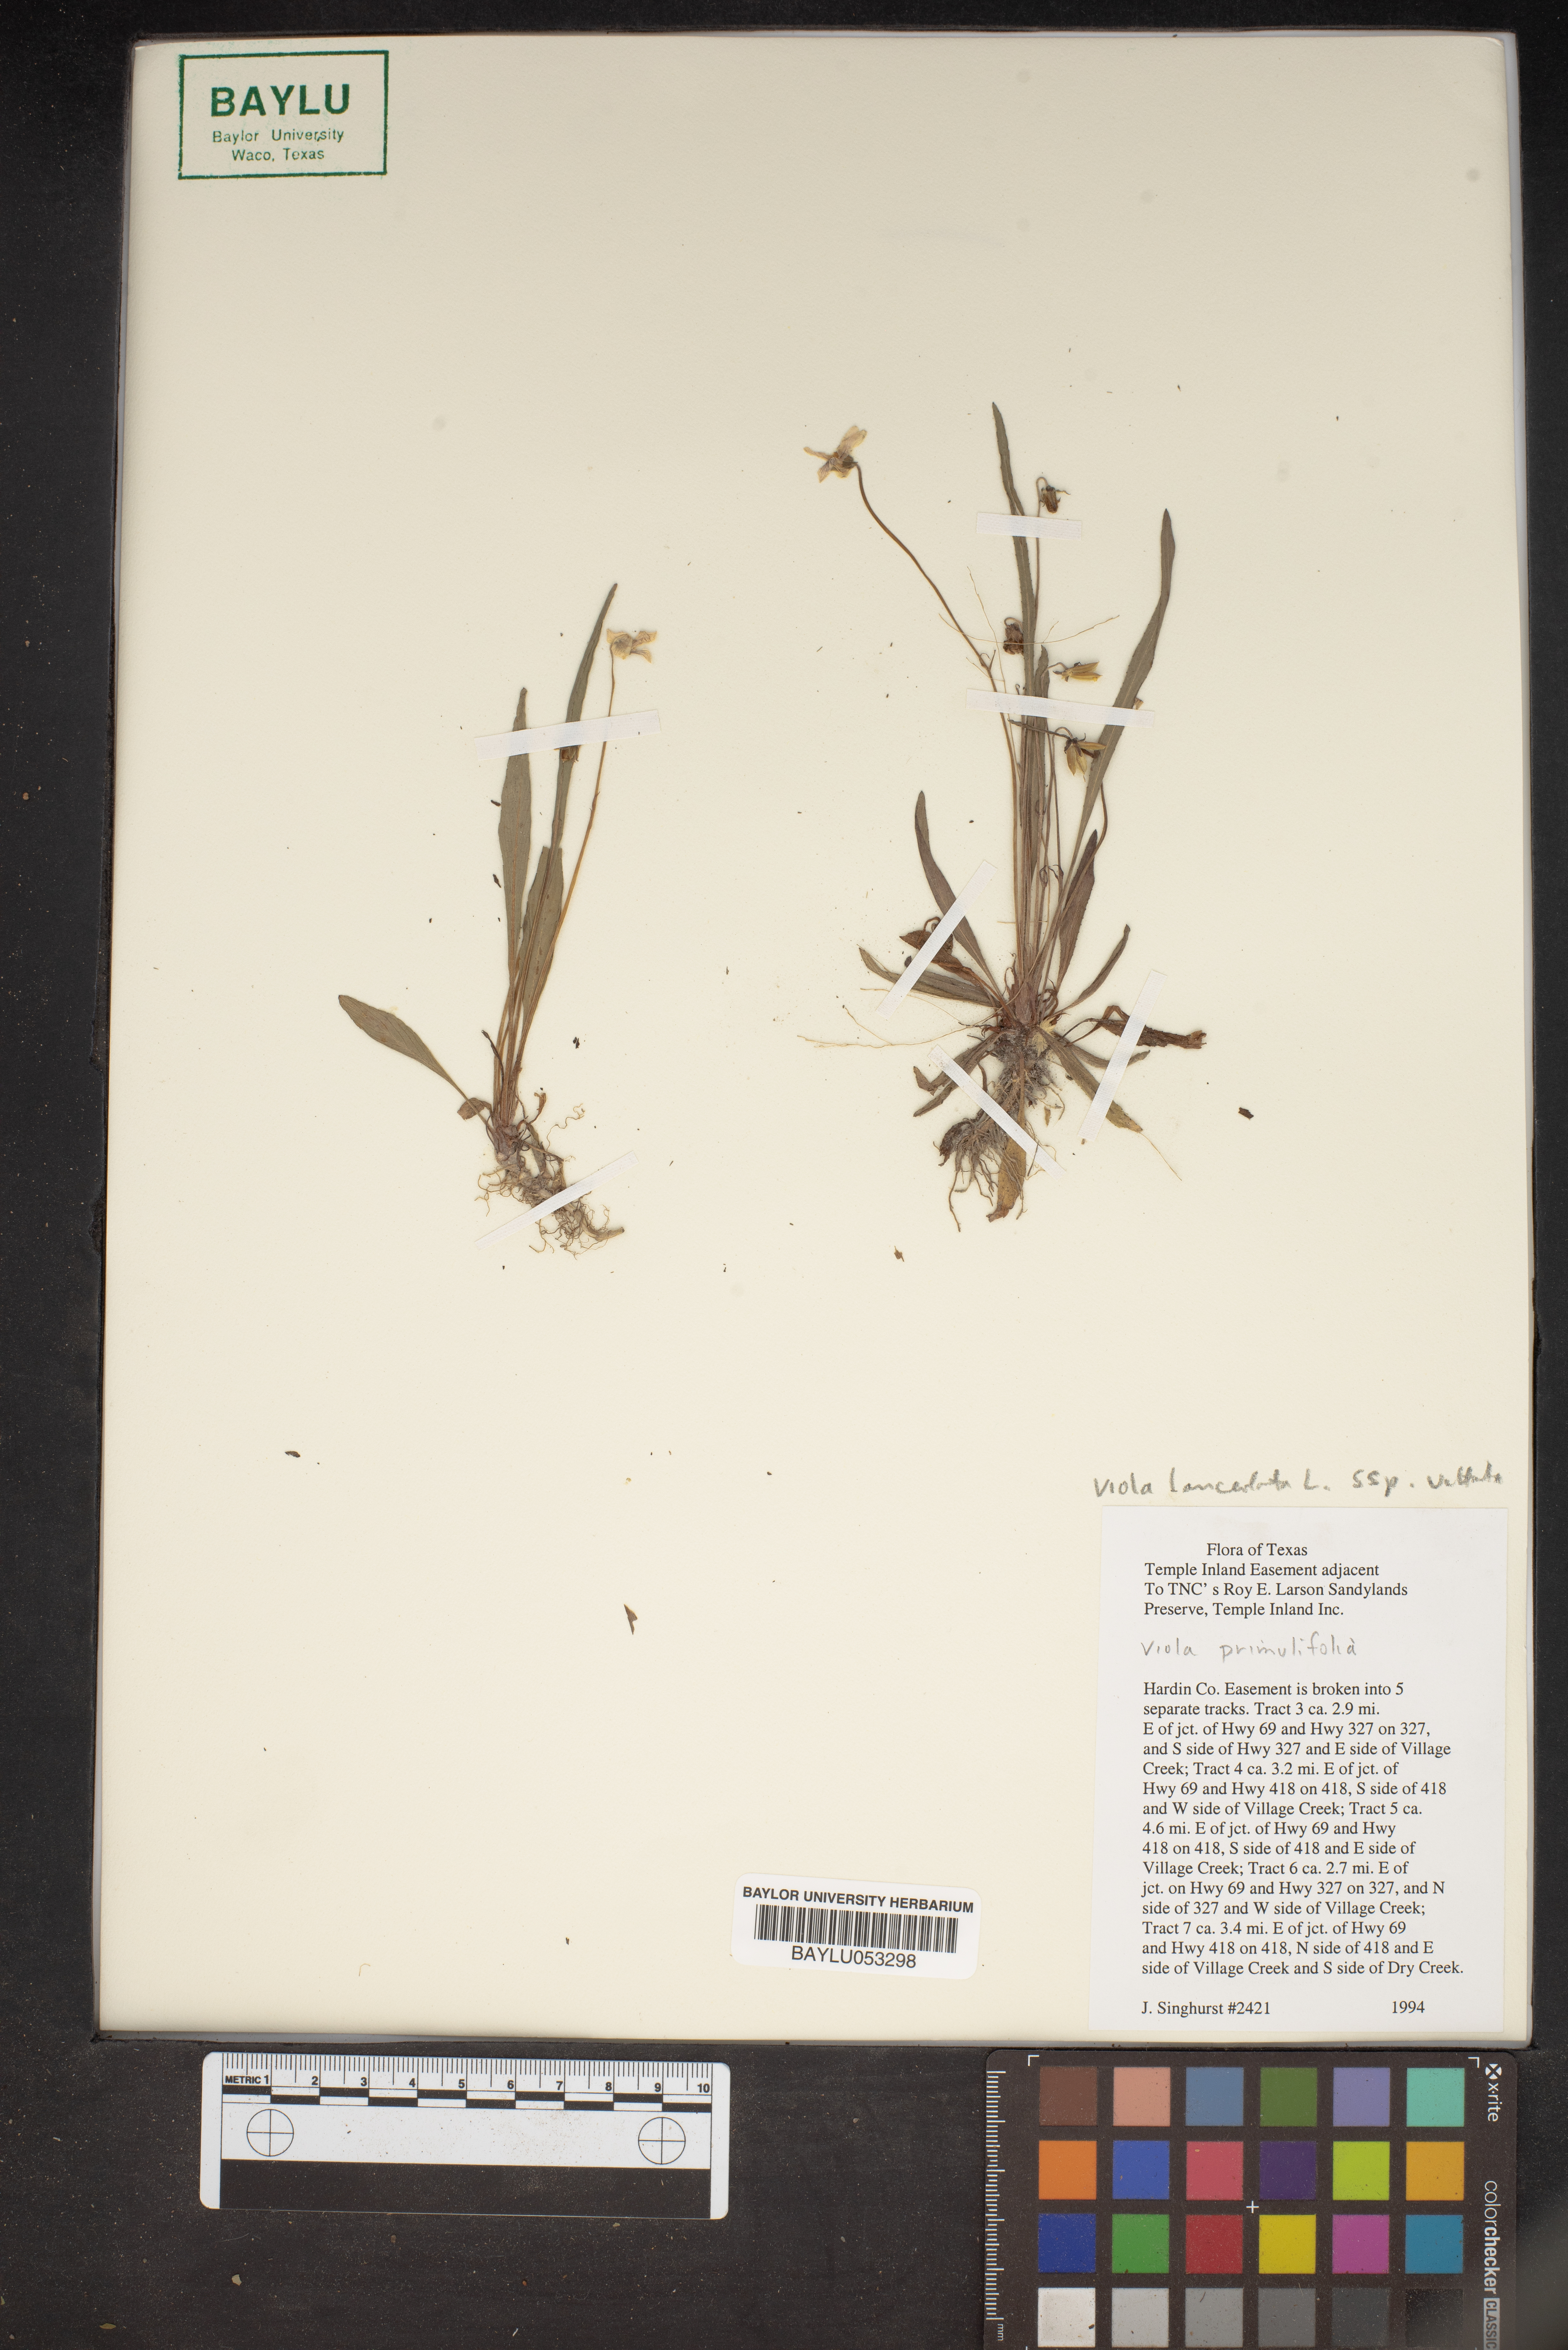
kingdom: Plantae
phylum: Tracheophyta
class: Magnoliopsida
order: Malpighiales
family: Violaceae
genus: Viola
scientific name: Viola vittata
